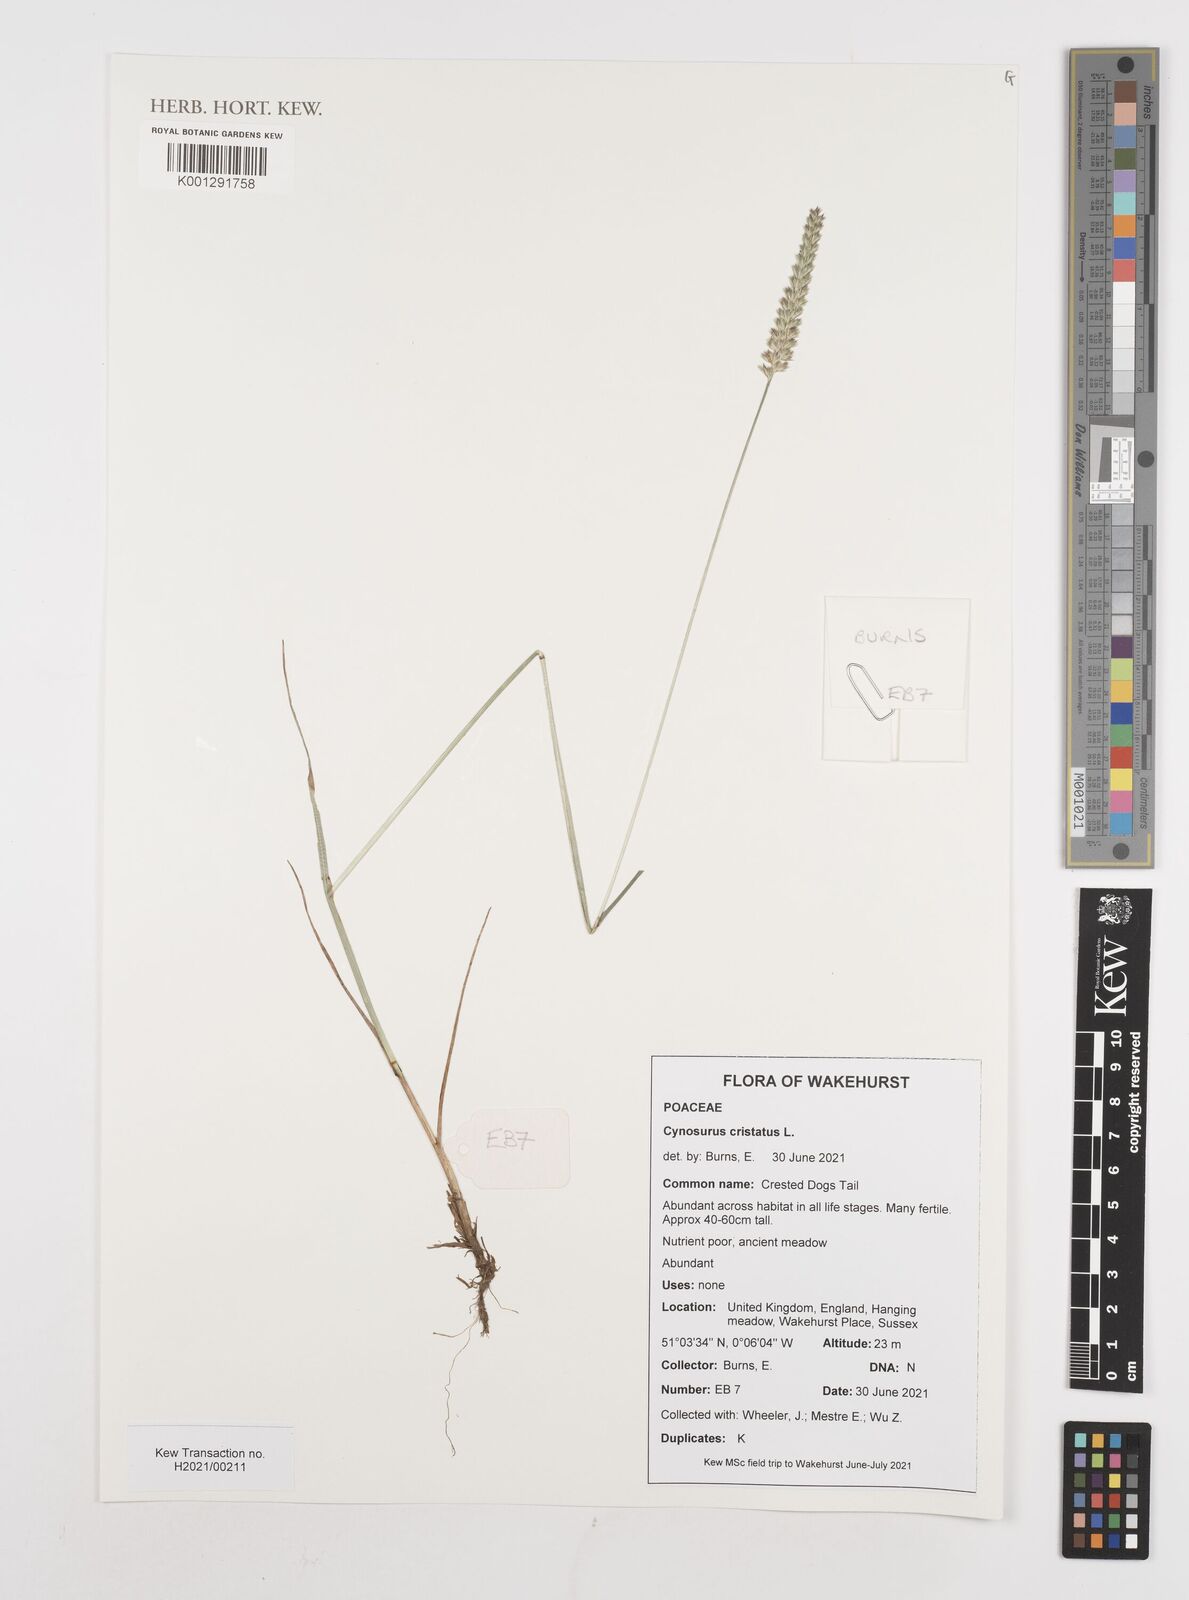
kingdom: Plantae
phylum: Tracheophyta
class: Liliopsida
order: Poales
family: Poaceae
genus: Cynosurus
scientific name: Cynosurus cristatus
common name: Crested dog's-tail
